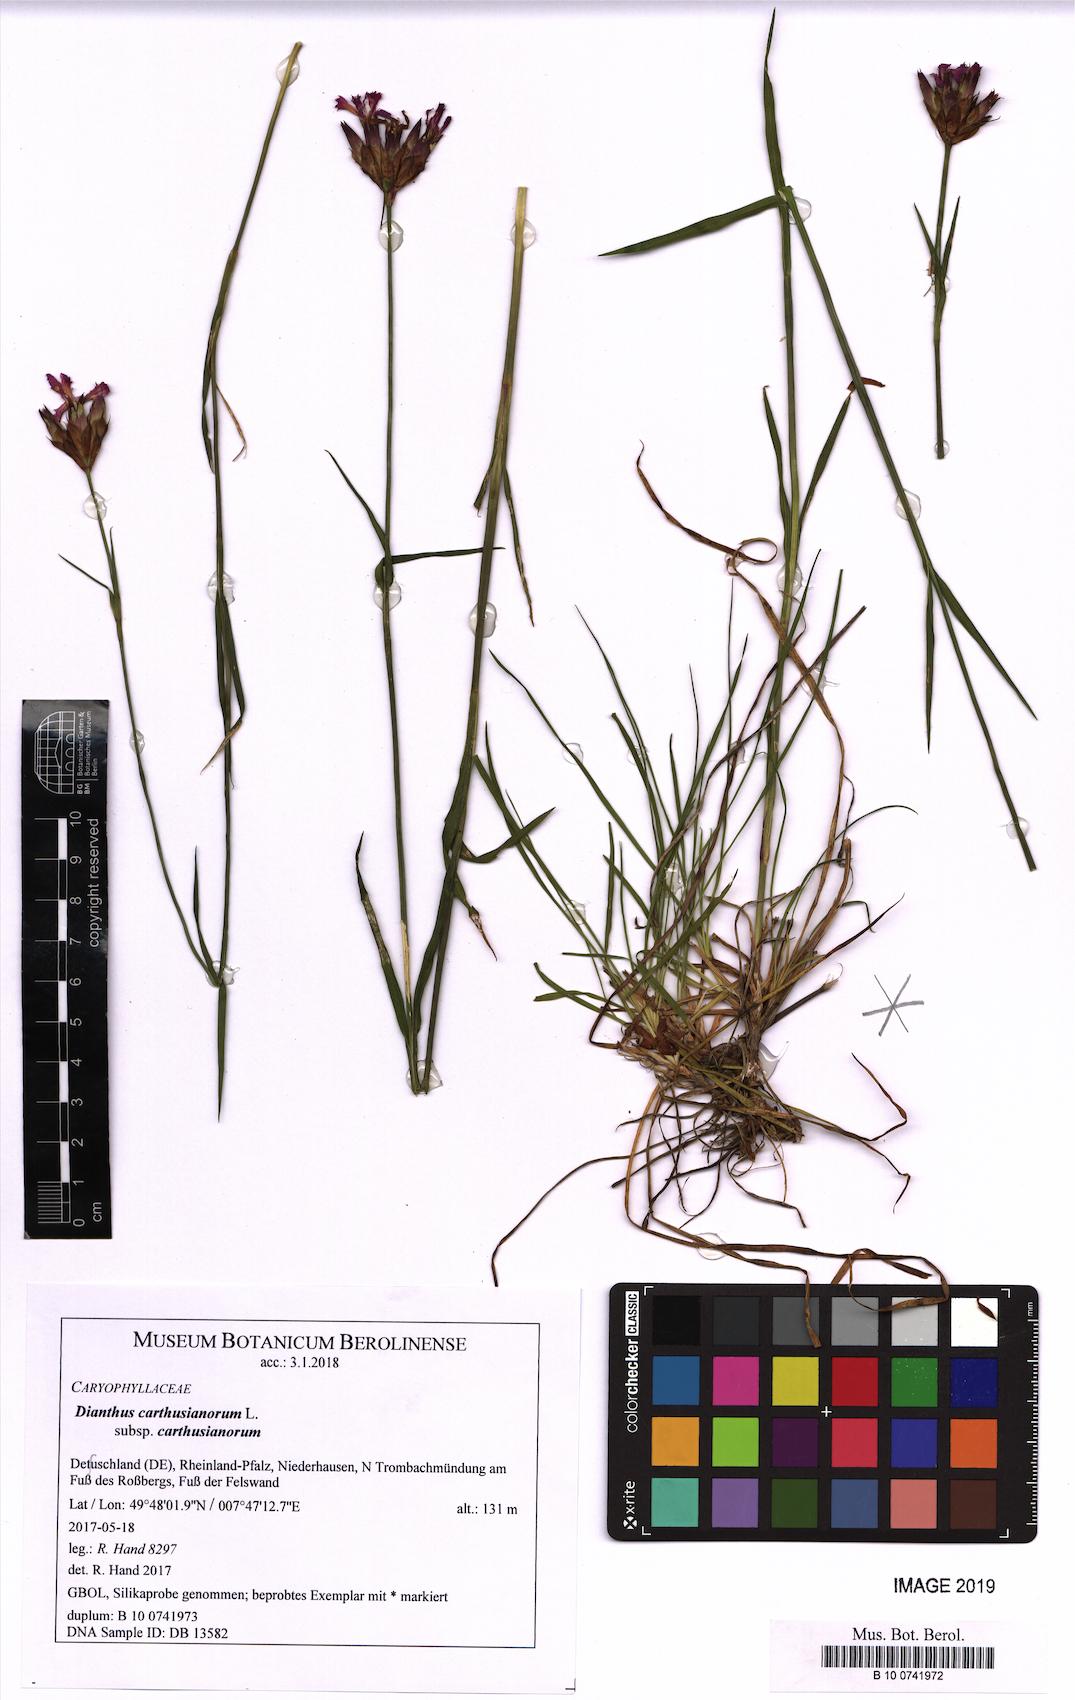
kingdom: Plantae
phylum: Tracheophyta
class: Magnoliopsida
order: Caryophyllales
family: Caryophyllaceae
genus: Dianthus
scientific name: Dianthus carthusianorum
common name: Carthusian pink
